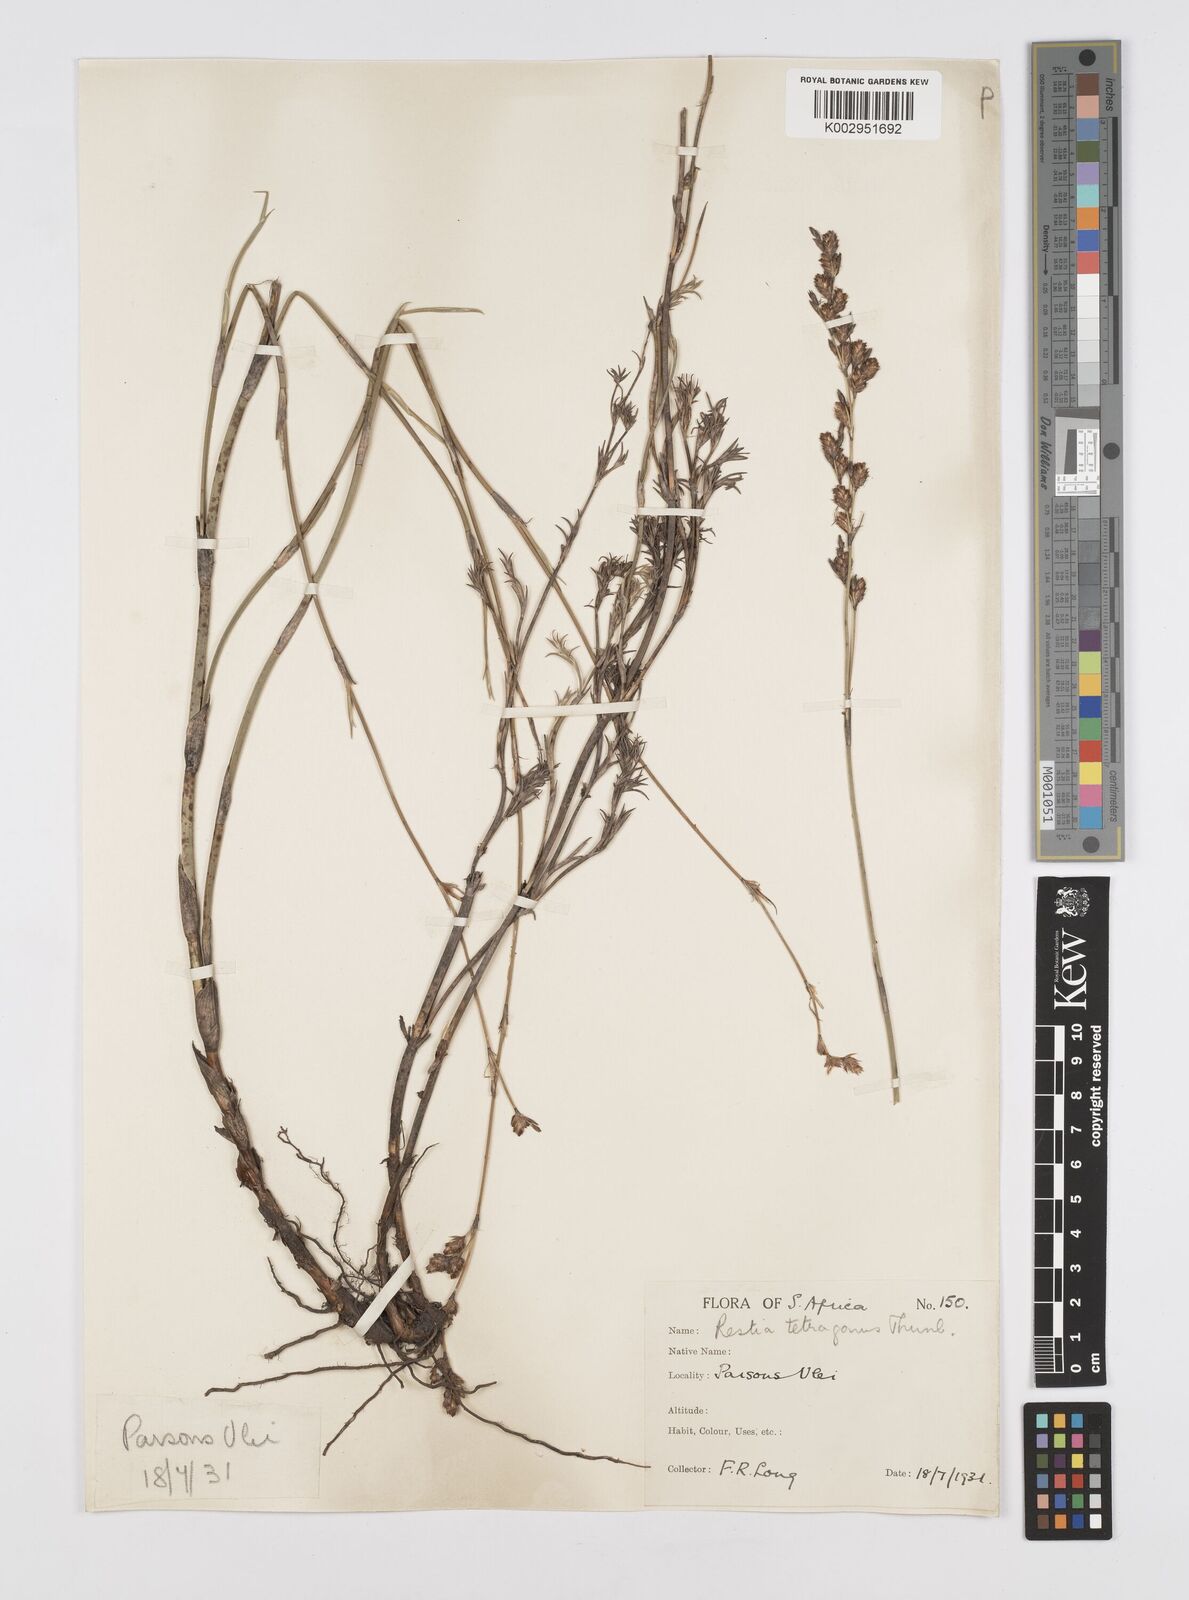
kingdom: Plantae
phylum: Tracheophyta
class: Liliopsida
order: Poales
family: Restionaceae
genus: Restio
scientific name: Restio tetragonus
